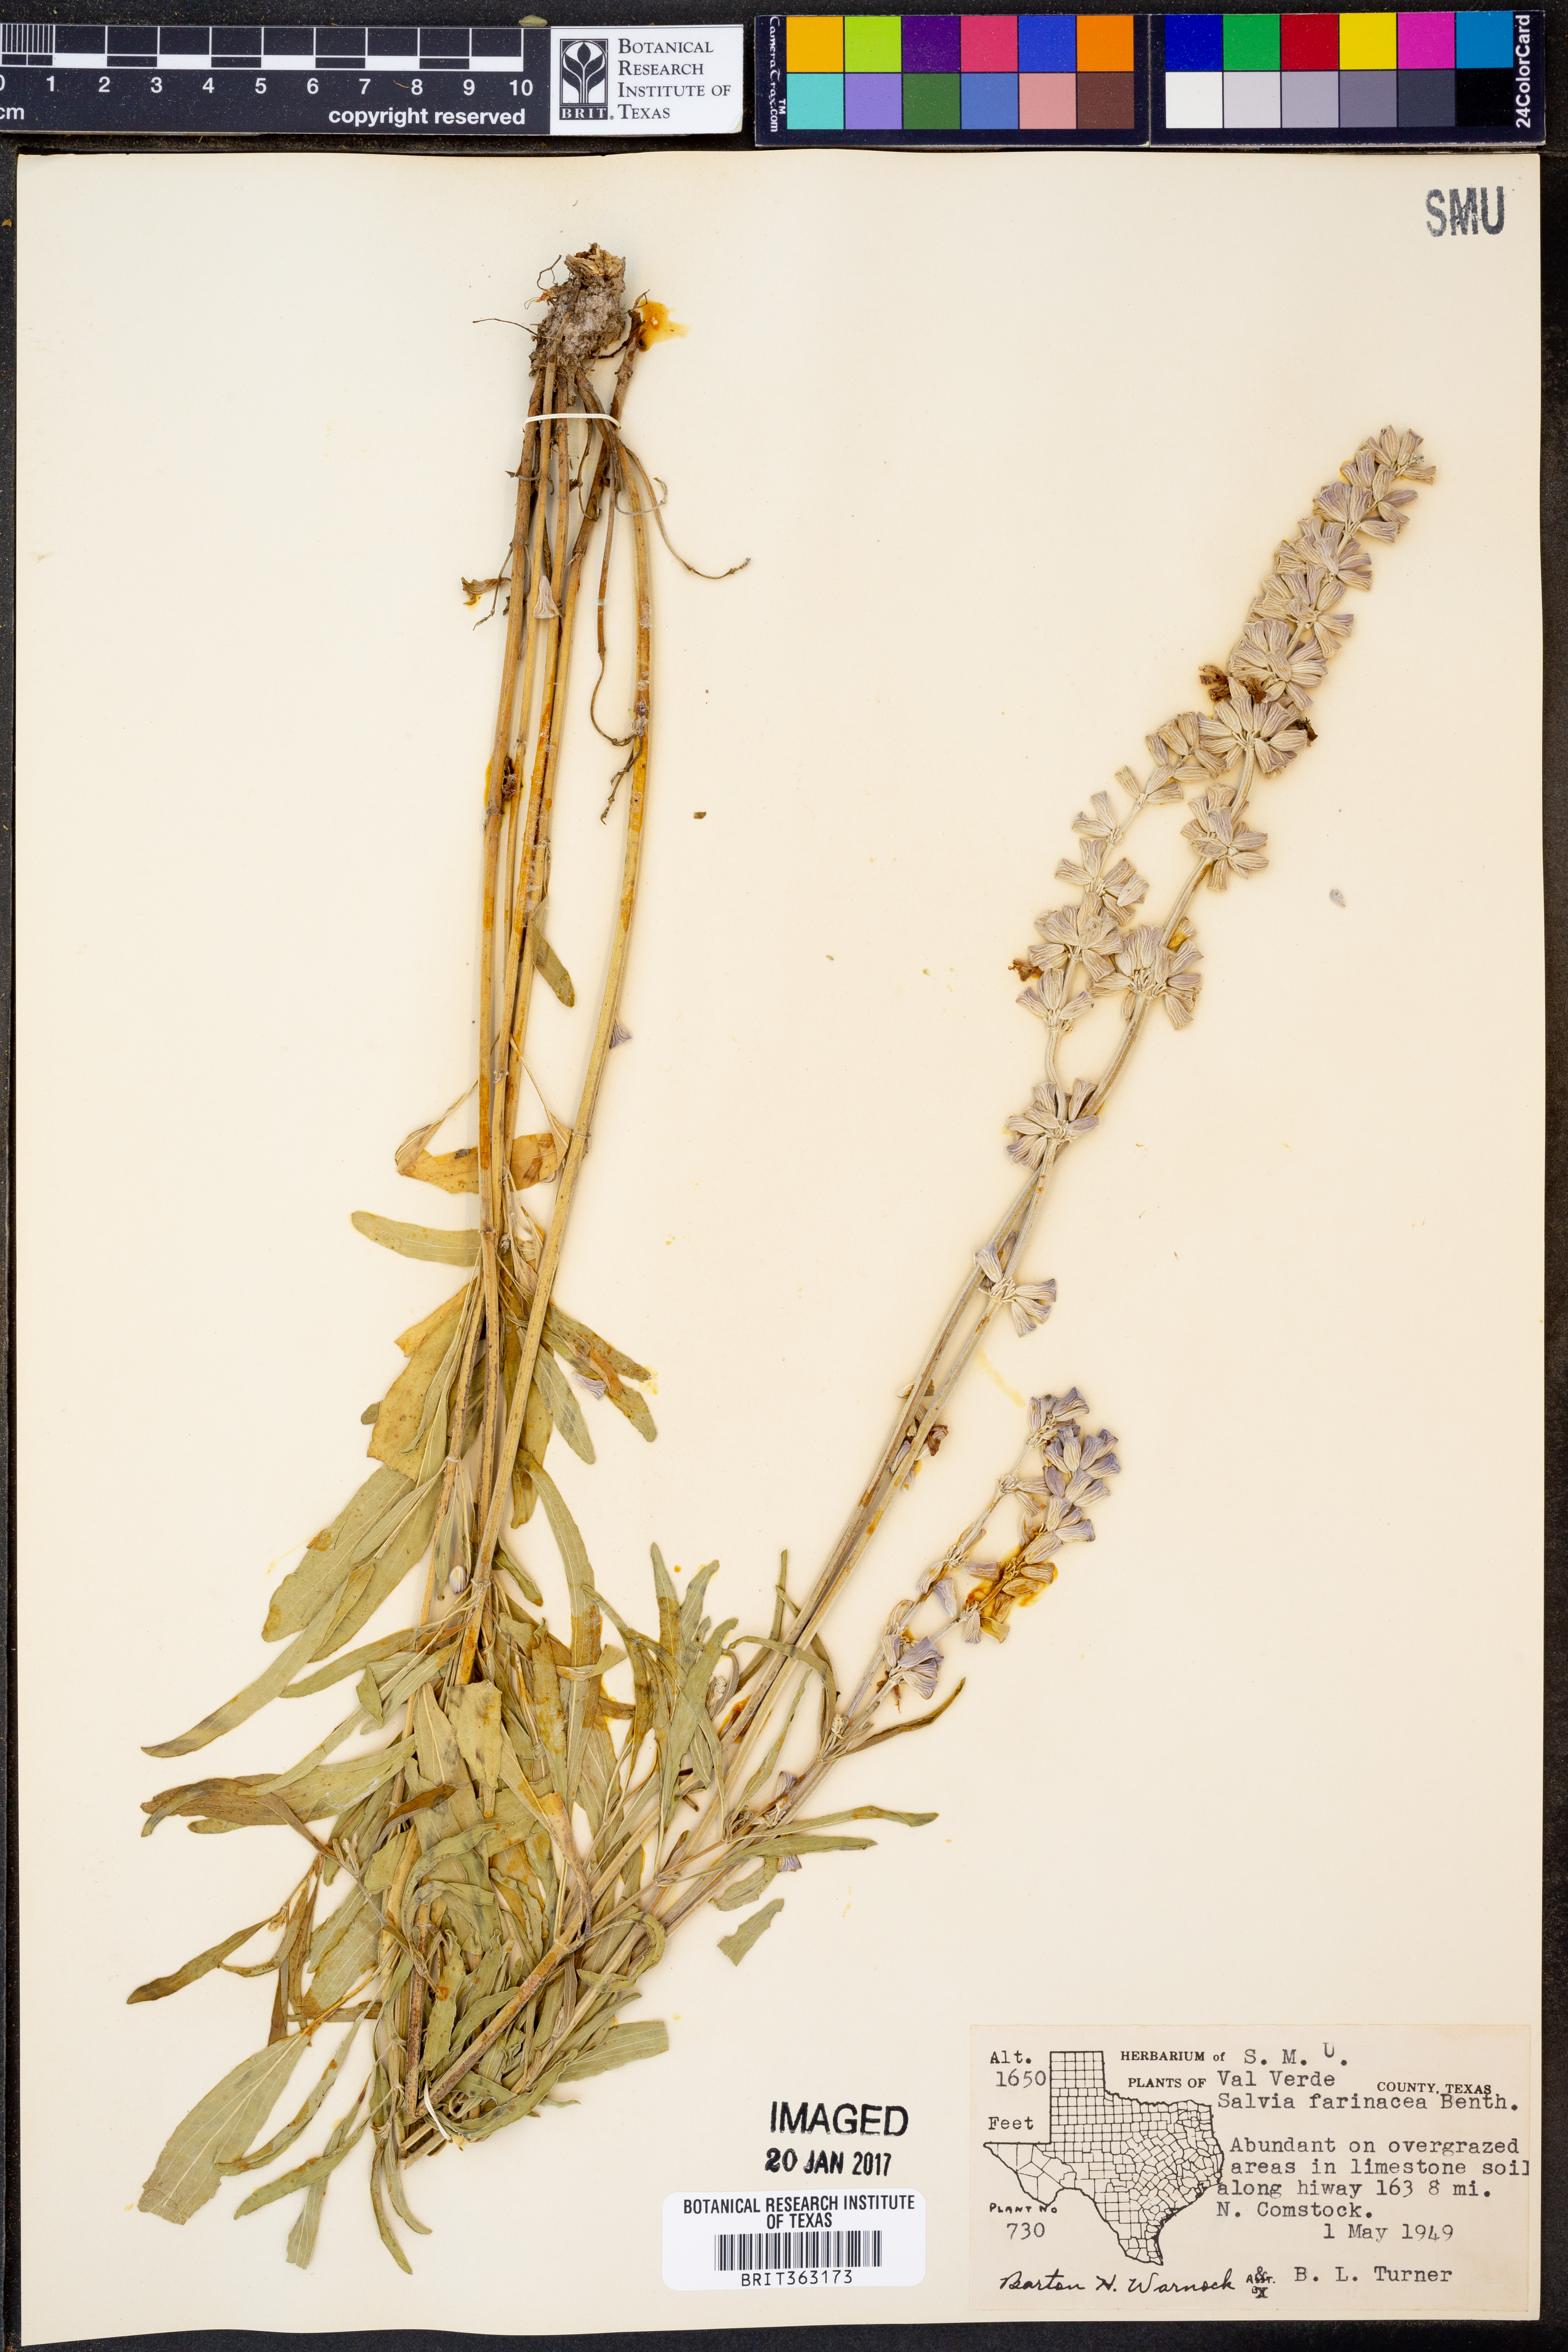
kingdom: Plantae
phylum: Tracheophyta
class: Magnoliopsida
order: Lamiales
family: Lamiaceae
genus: Salvia
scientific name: Salvia farinacea
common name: Mealy sage
